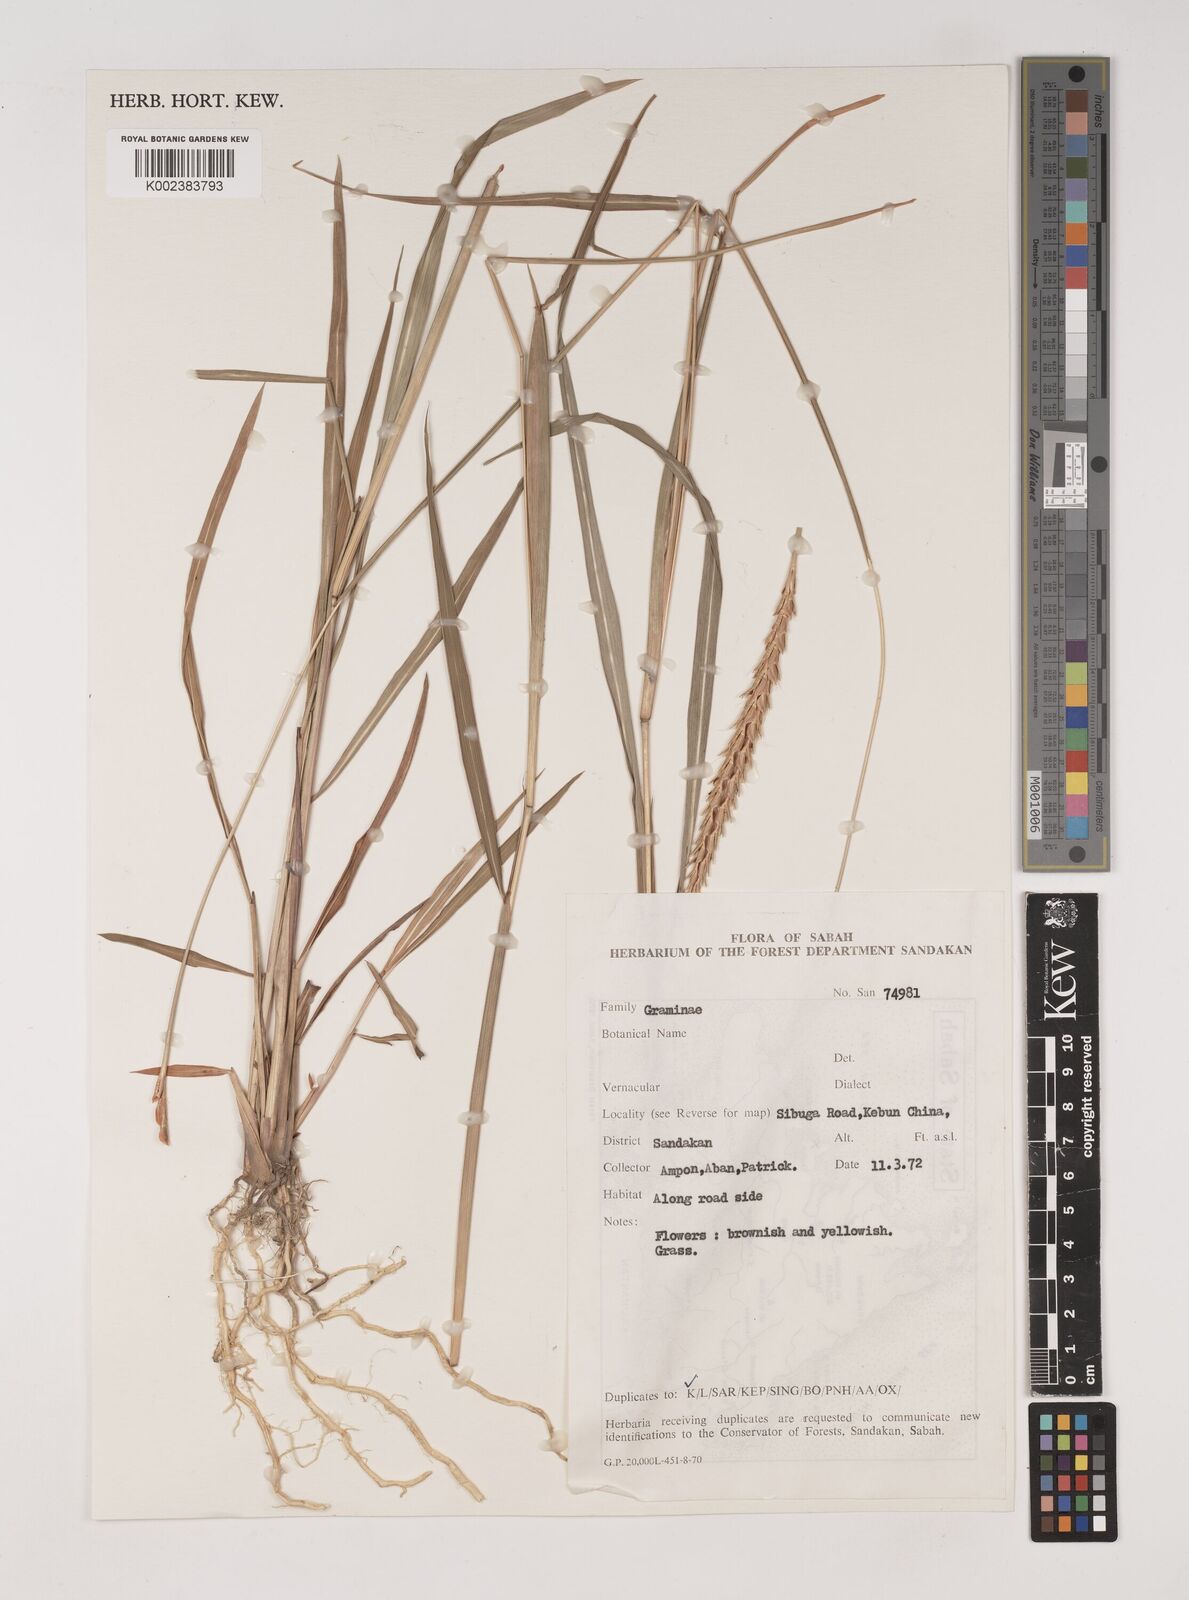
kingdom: Plantae
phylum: Tracheophyta
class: Liliopsida
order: Poales
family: Poaceae
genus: Ischaemum
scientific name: Ischaemum barbatum
